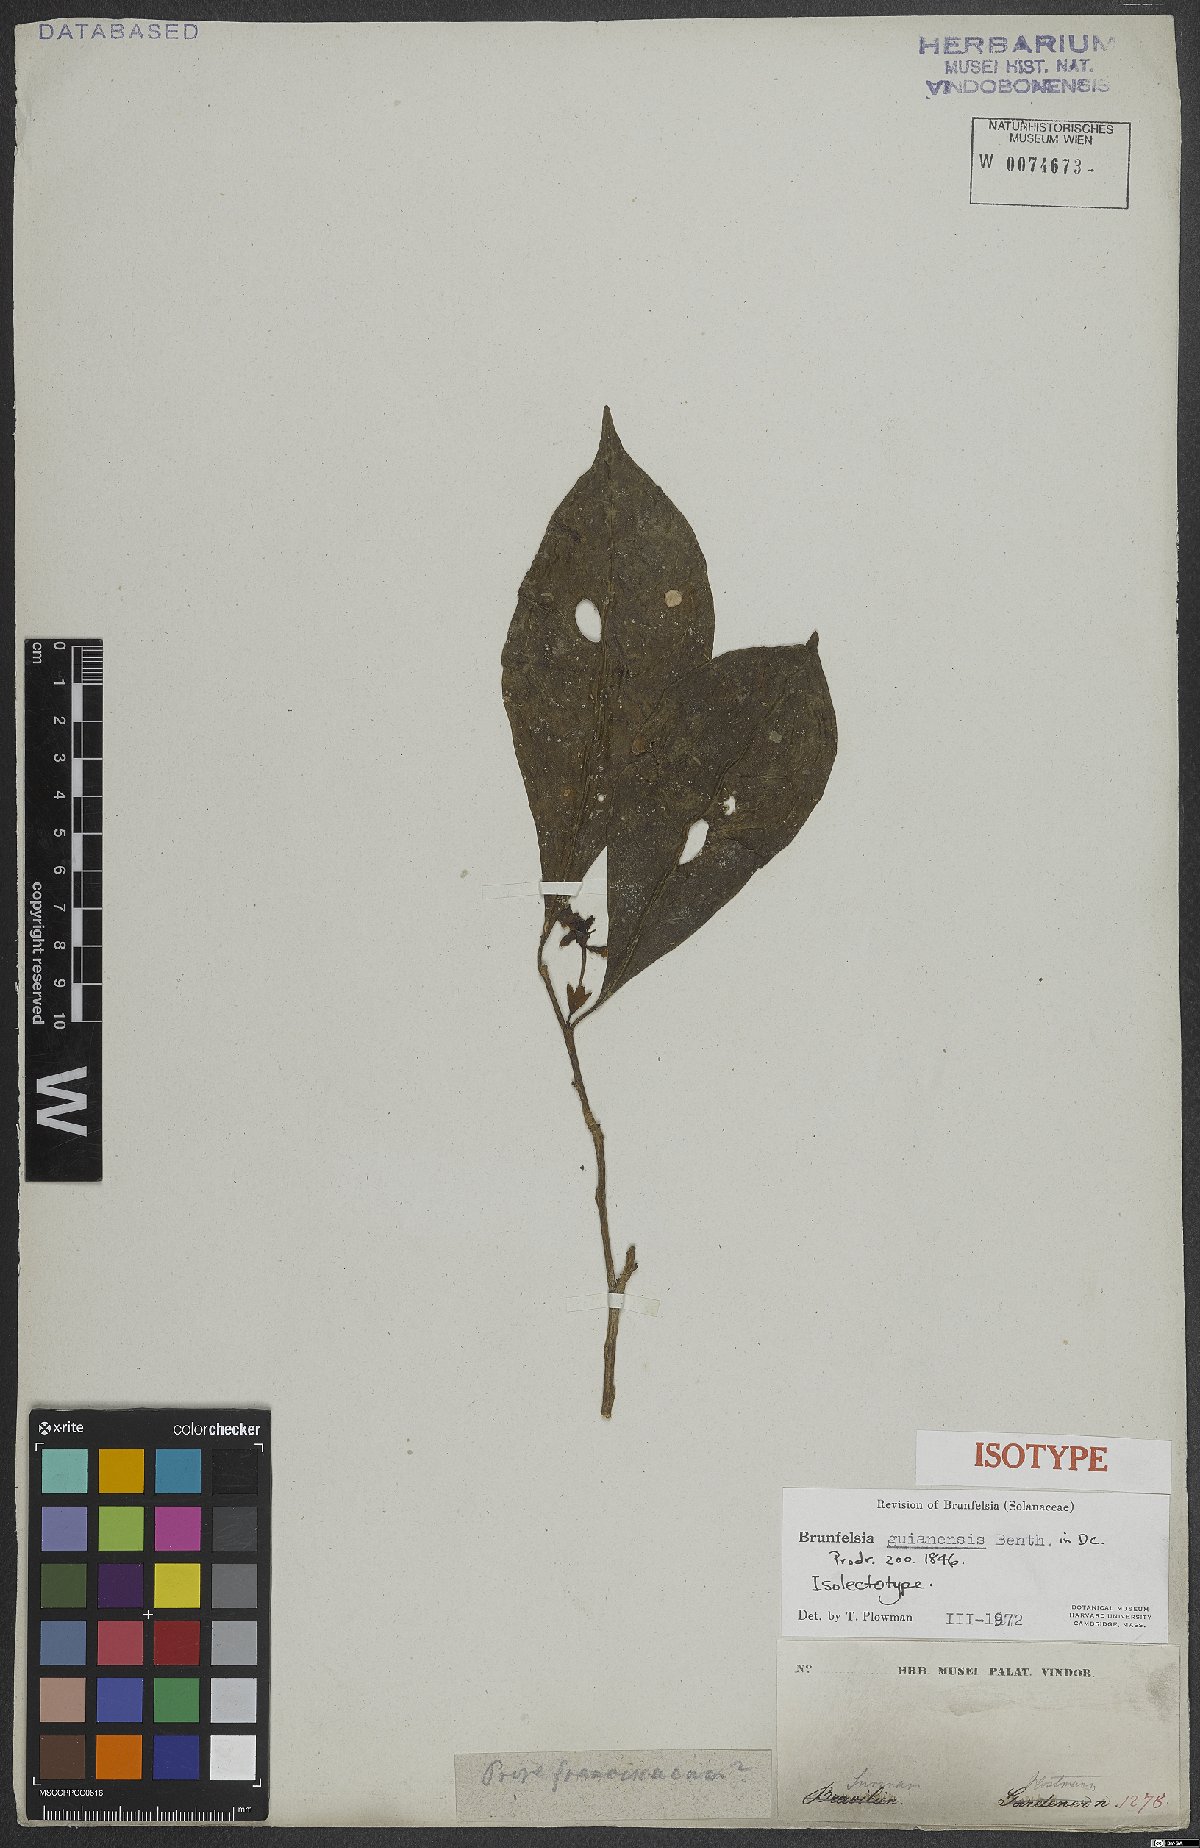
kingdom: Plantae
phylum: Tracheophyta
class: Magnoliopsida
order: Solanales
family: Solanaceae
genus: Brunfelsia
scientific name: Brunfelsia guianensis
